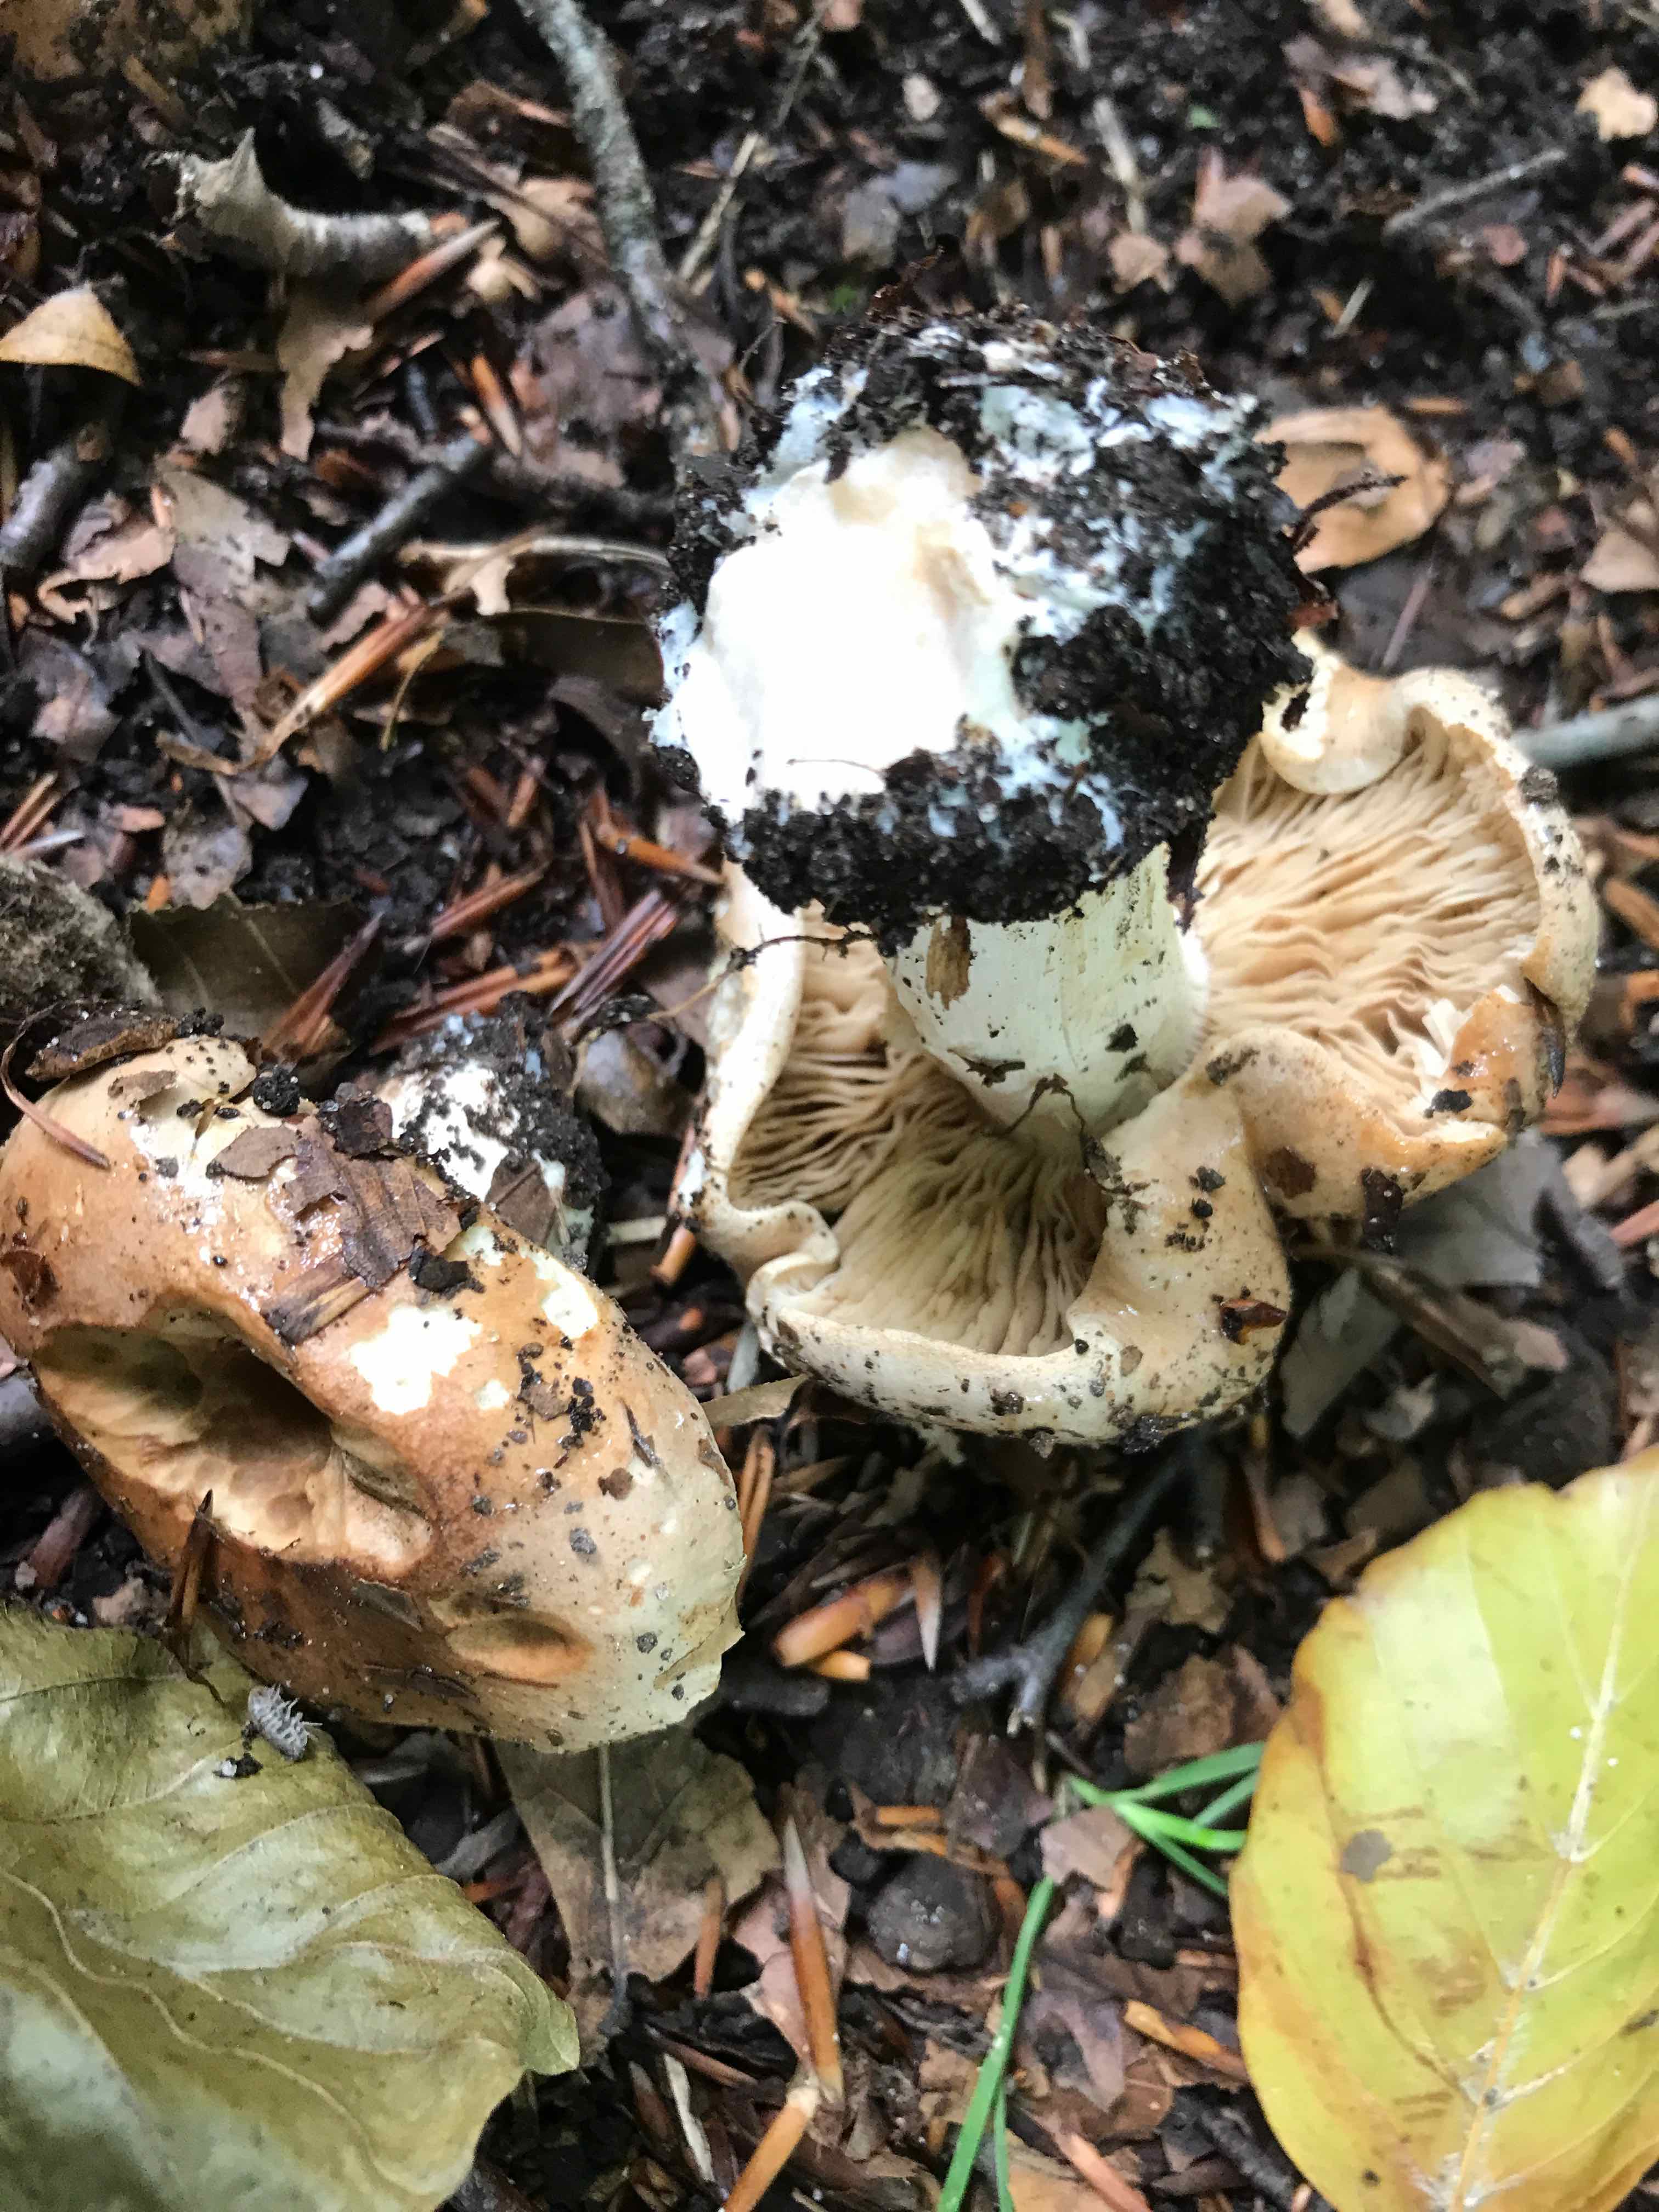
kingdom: Fungi
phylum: Basidiomycota
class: Agaricomycetes
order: Agaricales
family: Hymenogastraceae
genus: Hebeloma
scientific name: Hebeloma sinapizans
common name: ræddike-tåreblad
